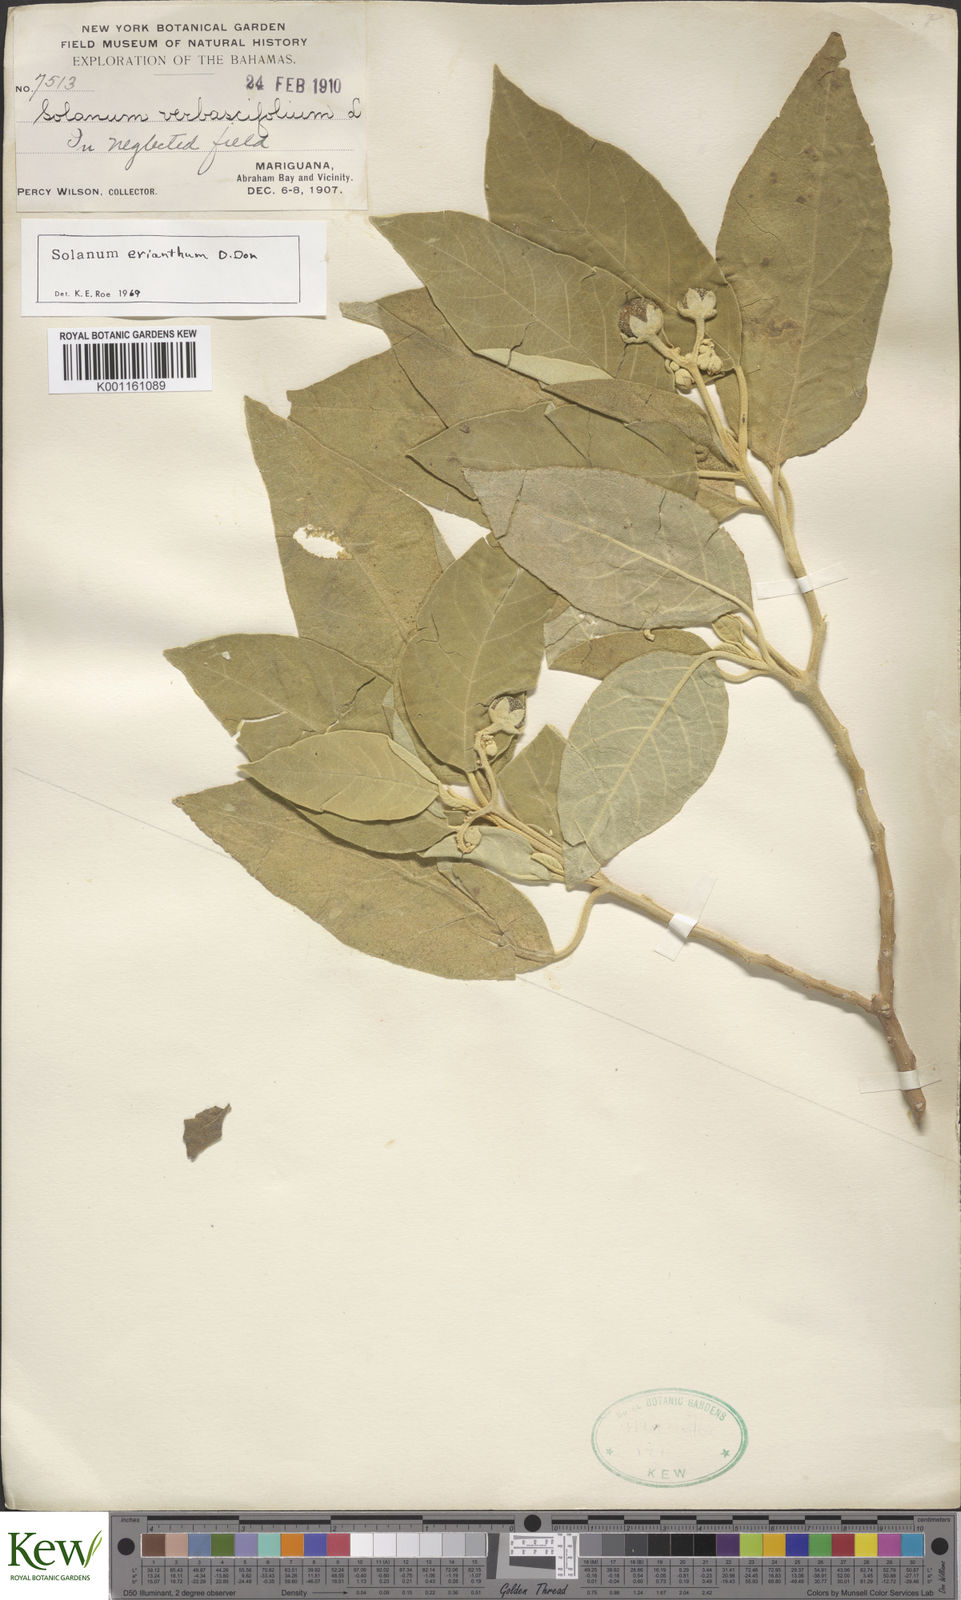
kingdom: Plantae
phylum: Tracheophyta
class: Magnoliopsida
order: Solanales
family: Solanaceae
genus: Solanum
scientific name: Solanum erianthum
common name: Tobacco-tree
